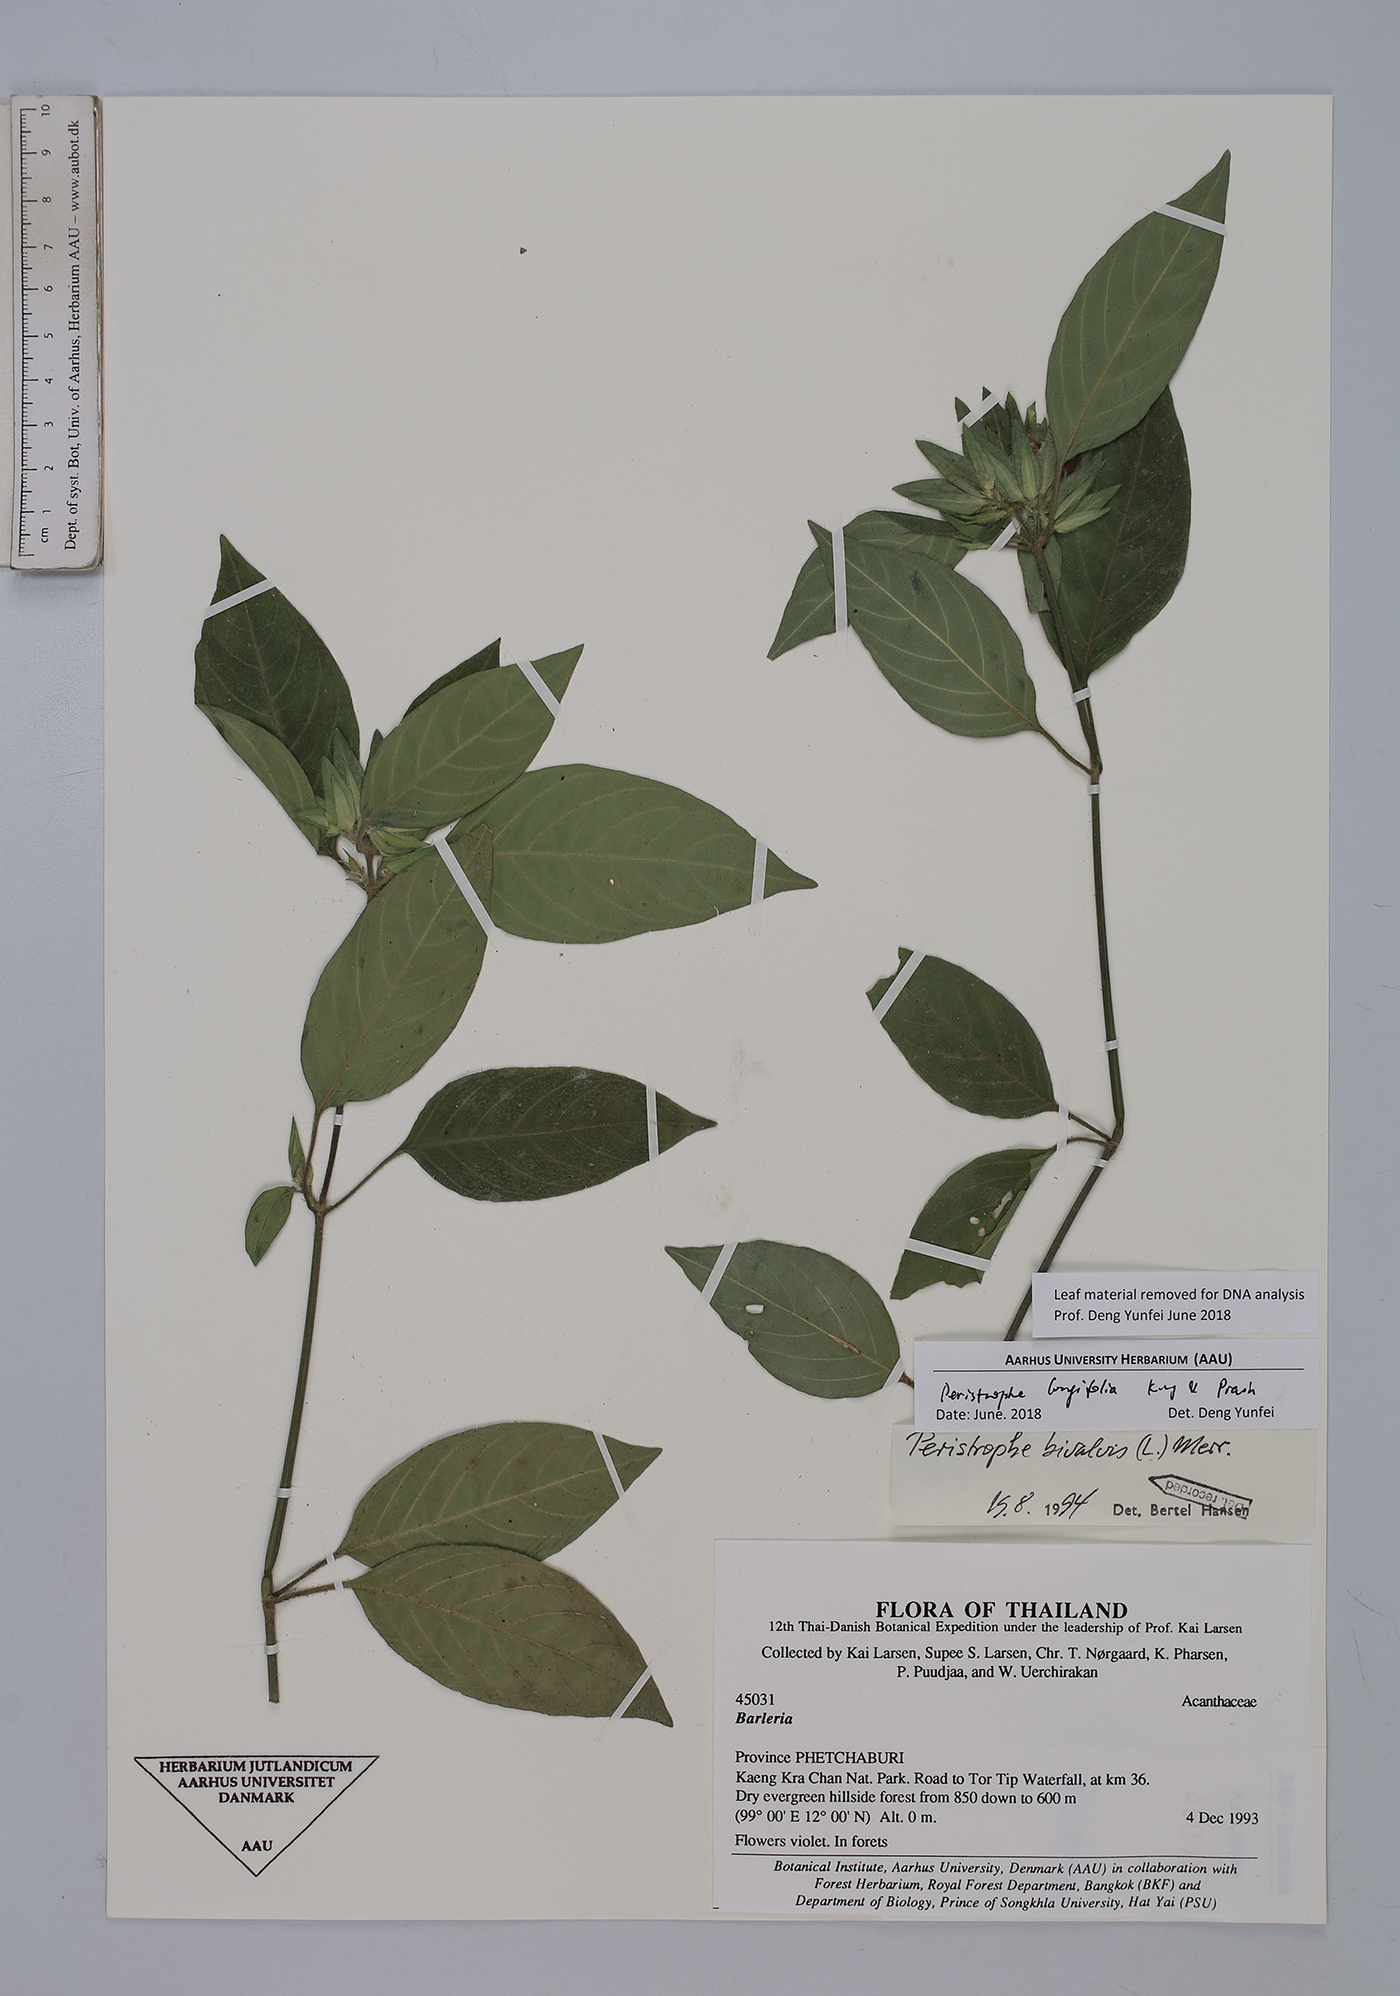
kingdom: Plantae
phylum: Tracheophyta
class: Magnoliopsida
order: Lamiales
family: Acanthaceae
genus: Dicliptera
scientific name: Dicliptera longifolia
